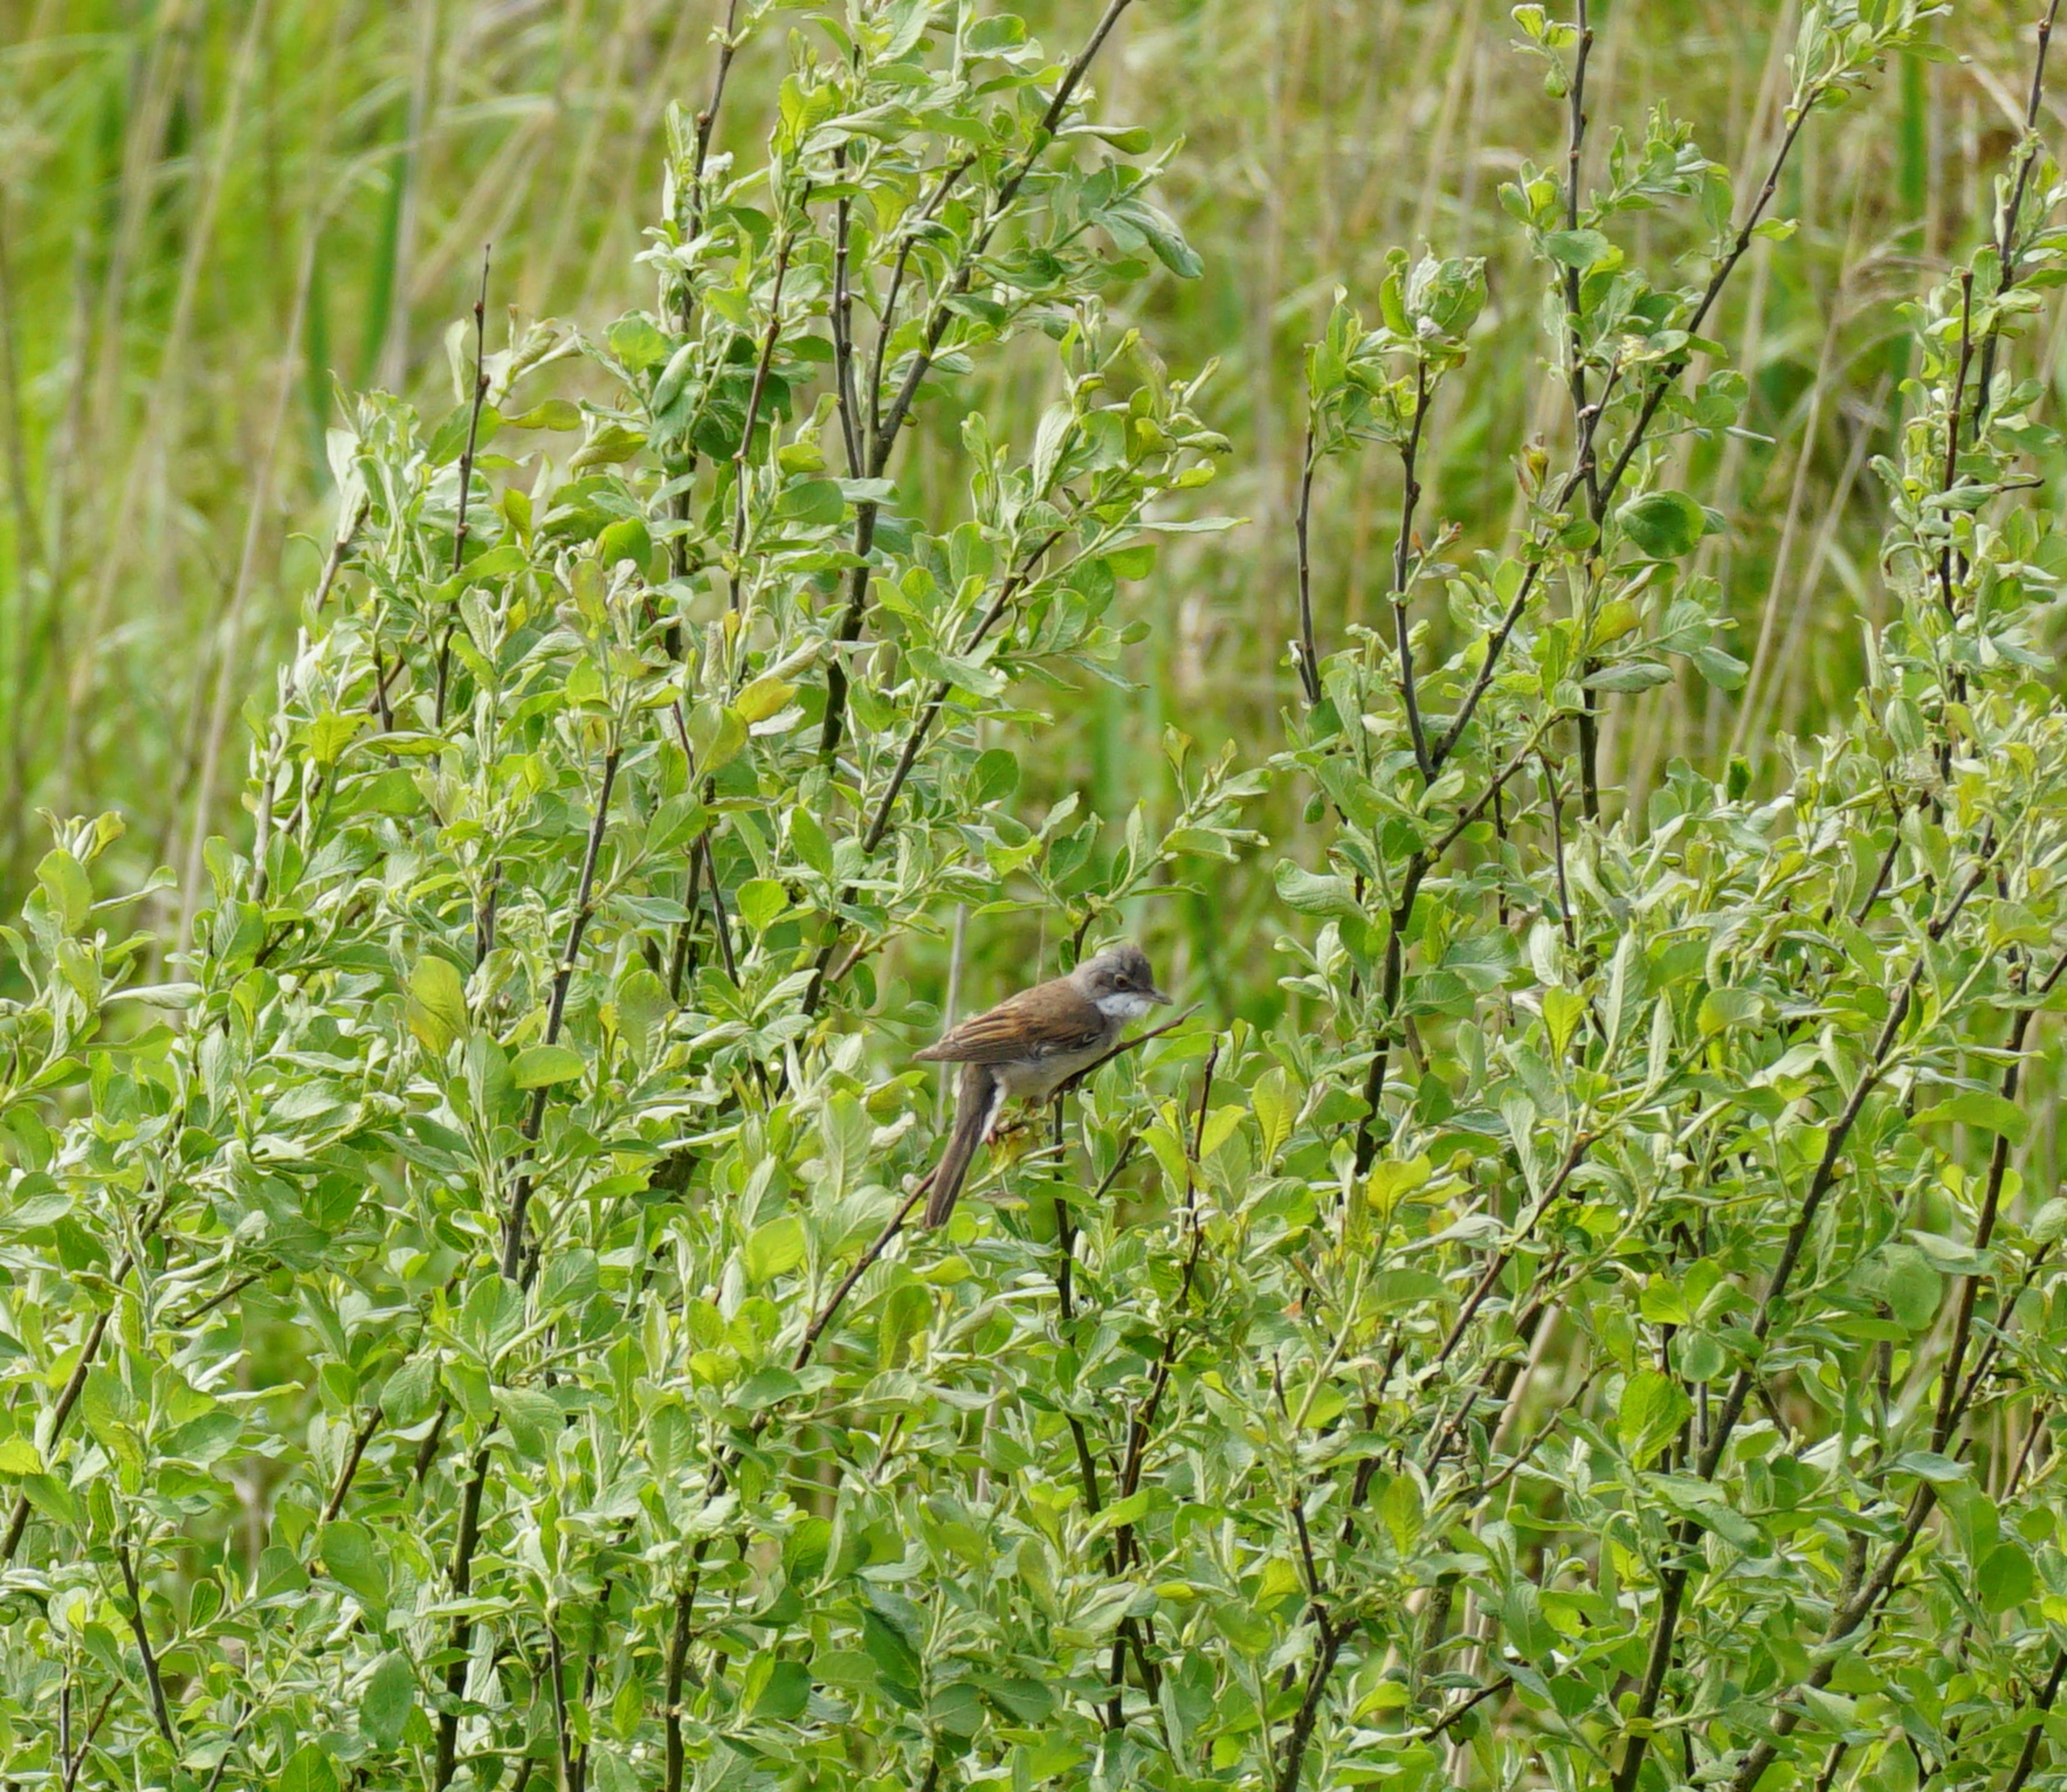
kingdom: Animalia
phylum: Chordata
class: Aves
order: Passeriformes
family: Sylviidae
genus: Sylvia
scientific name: Sylvia communis
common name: Tornsanger
